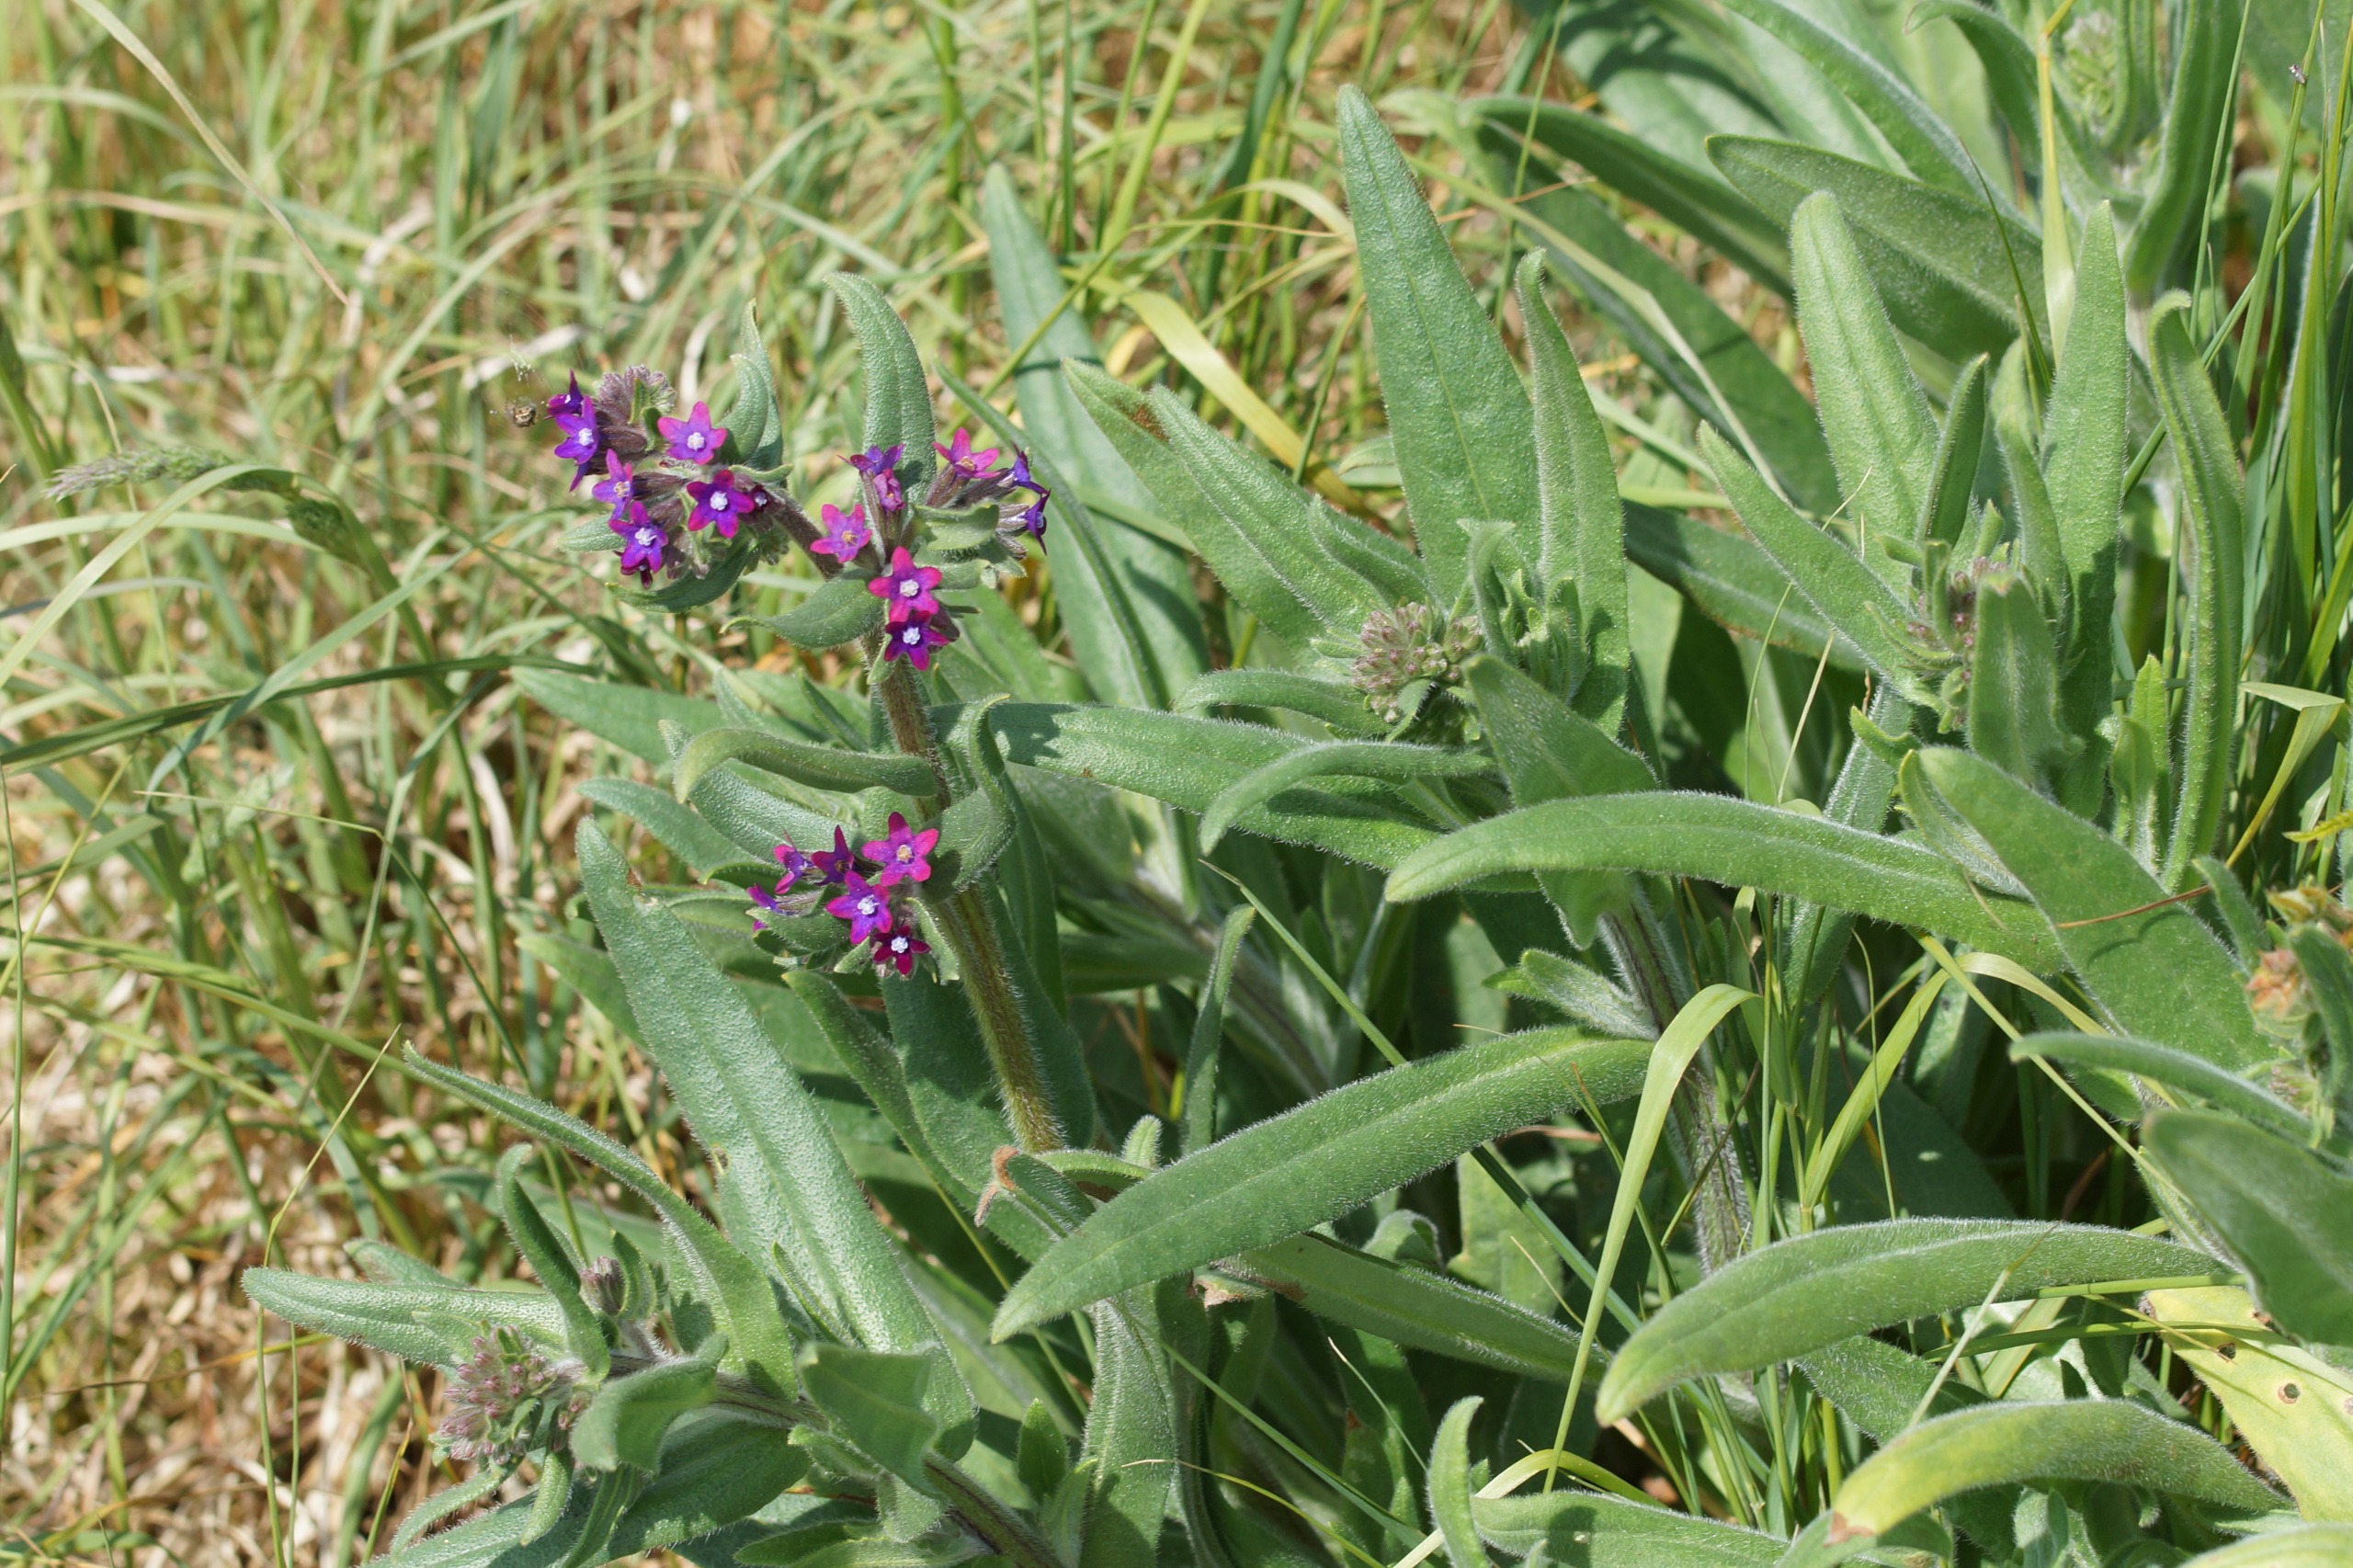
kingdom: Plantae
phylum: Tracheophyta
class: Magnoliopsida
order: Boraginales
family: Boraginaceae
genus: Anchusa
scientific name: Anchusa officinalis
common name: Læge-oksetunge
